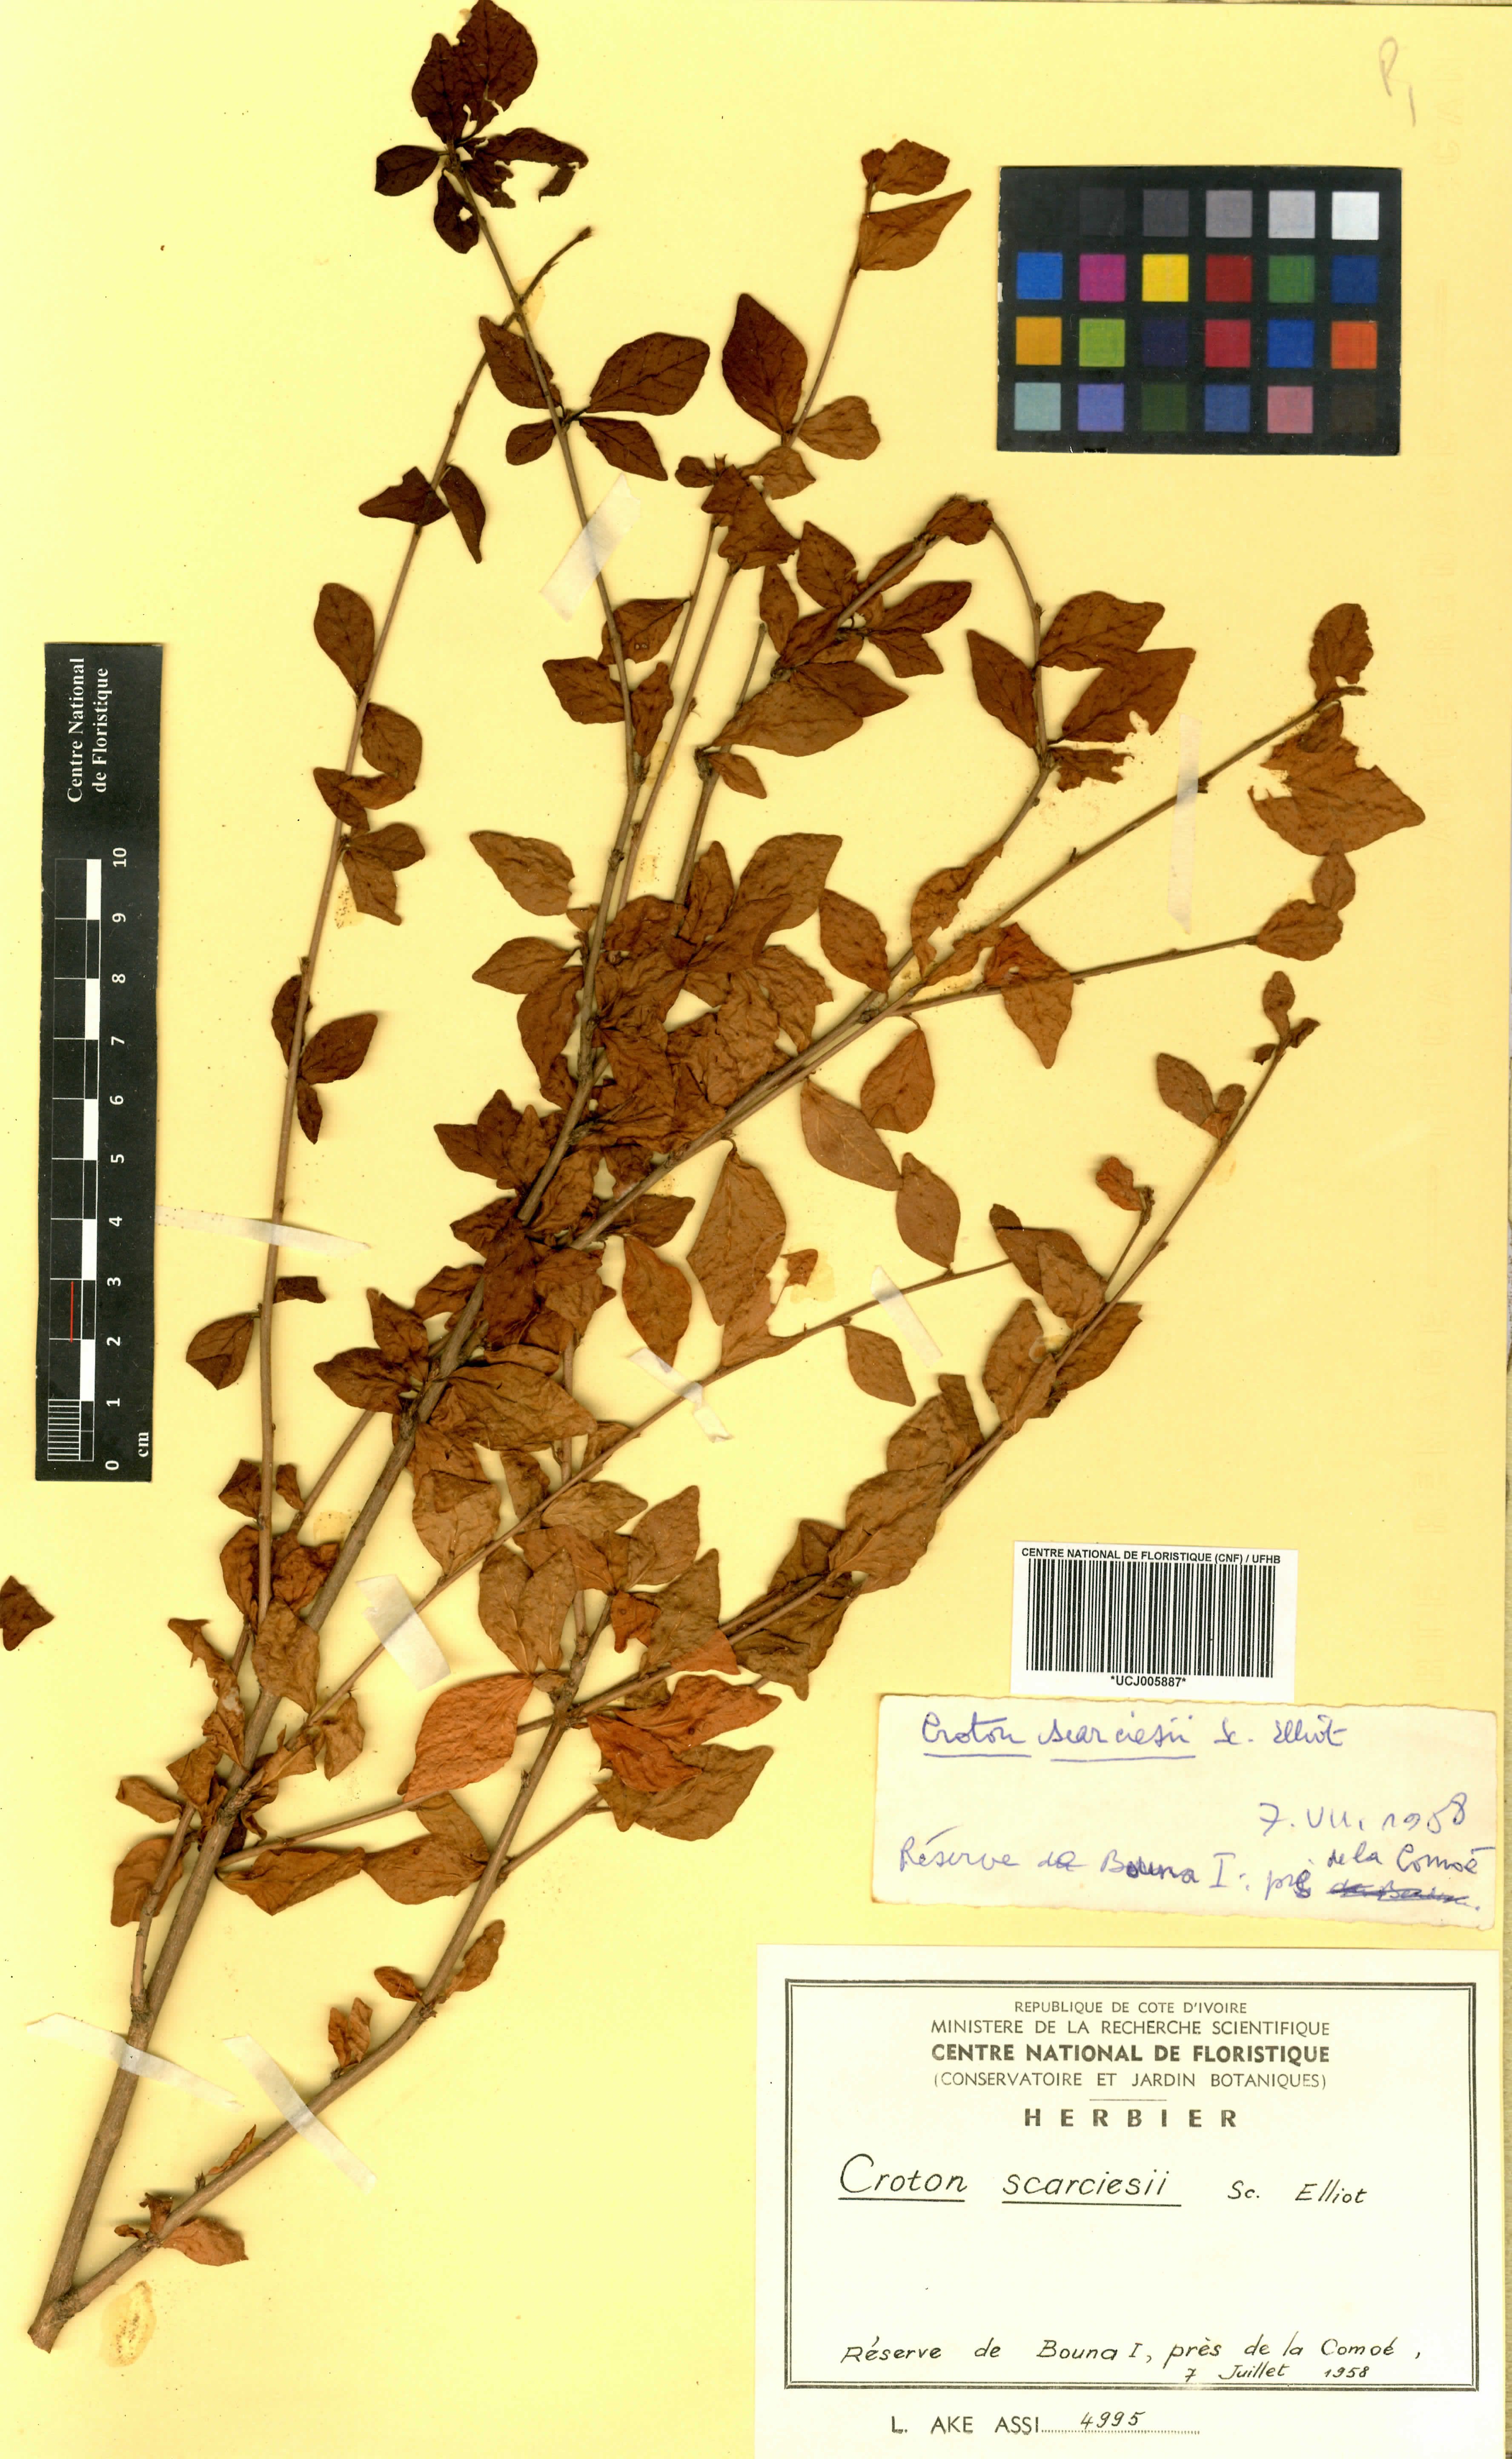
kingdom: Plantae
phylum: Tracheophyta
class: Magnoliopsida
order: Malpighiales
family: Euphorbiaceae
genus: Karima
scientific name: Karima scarciesii
